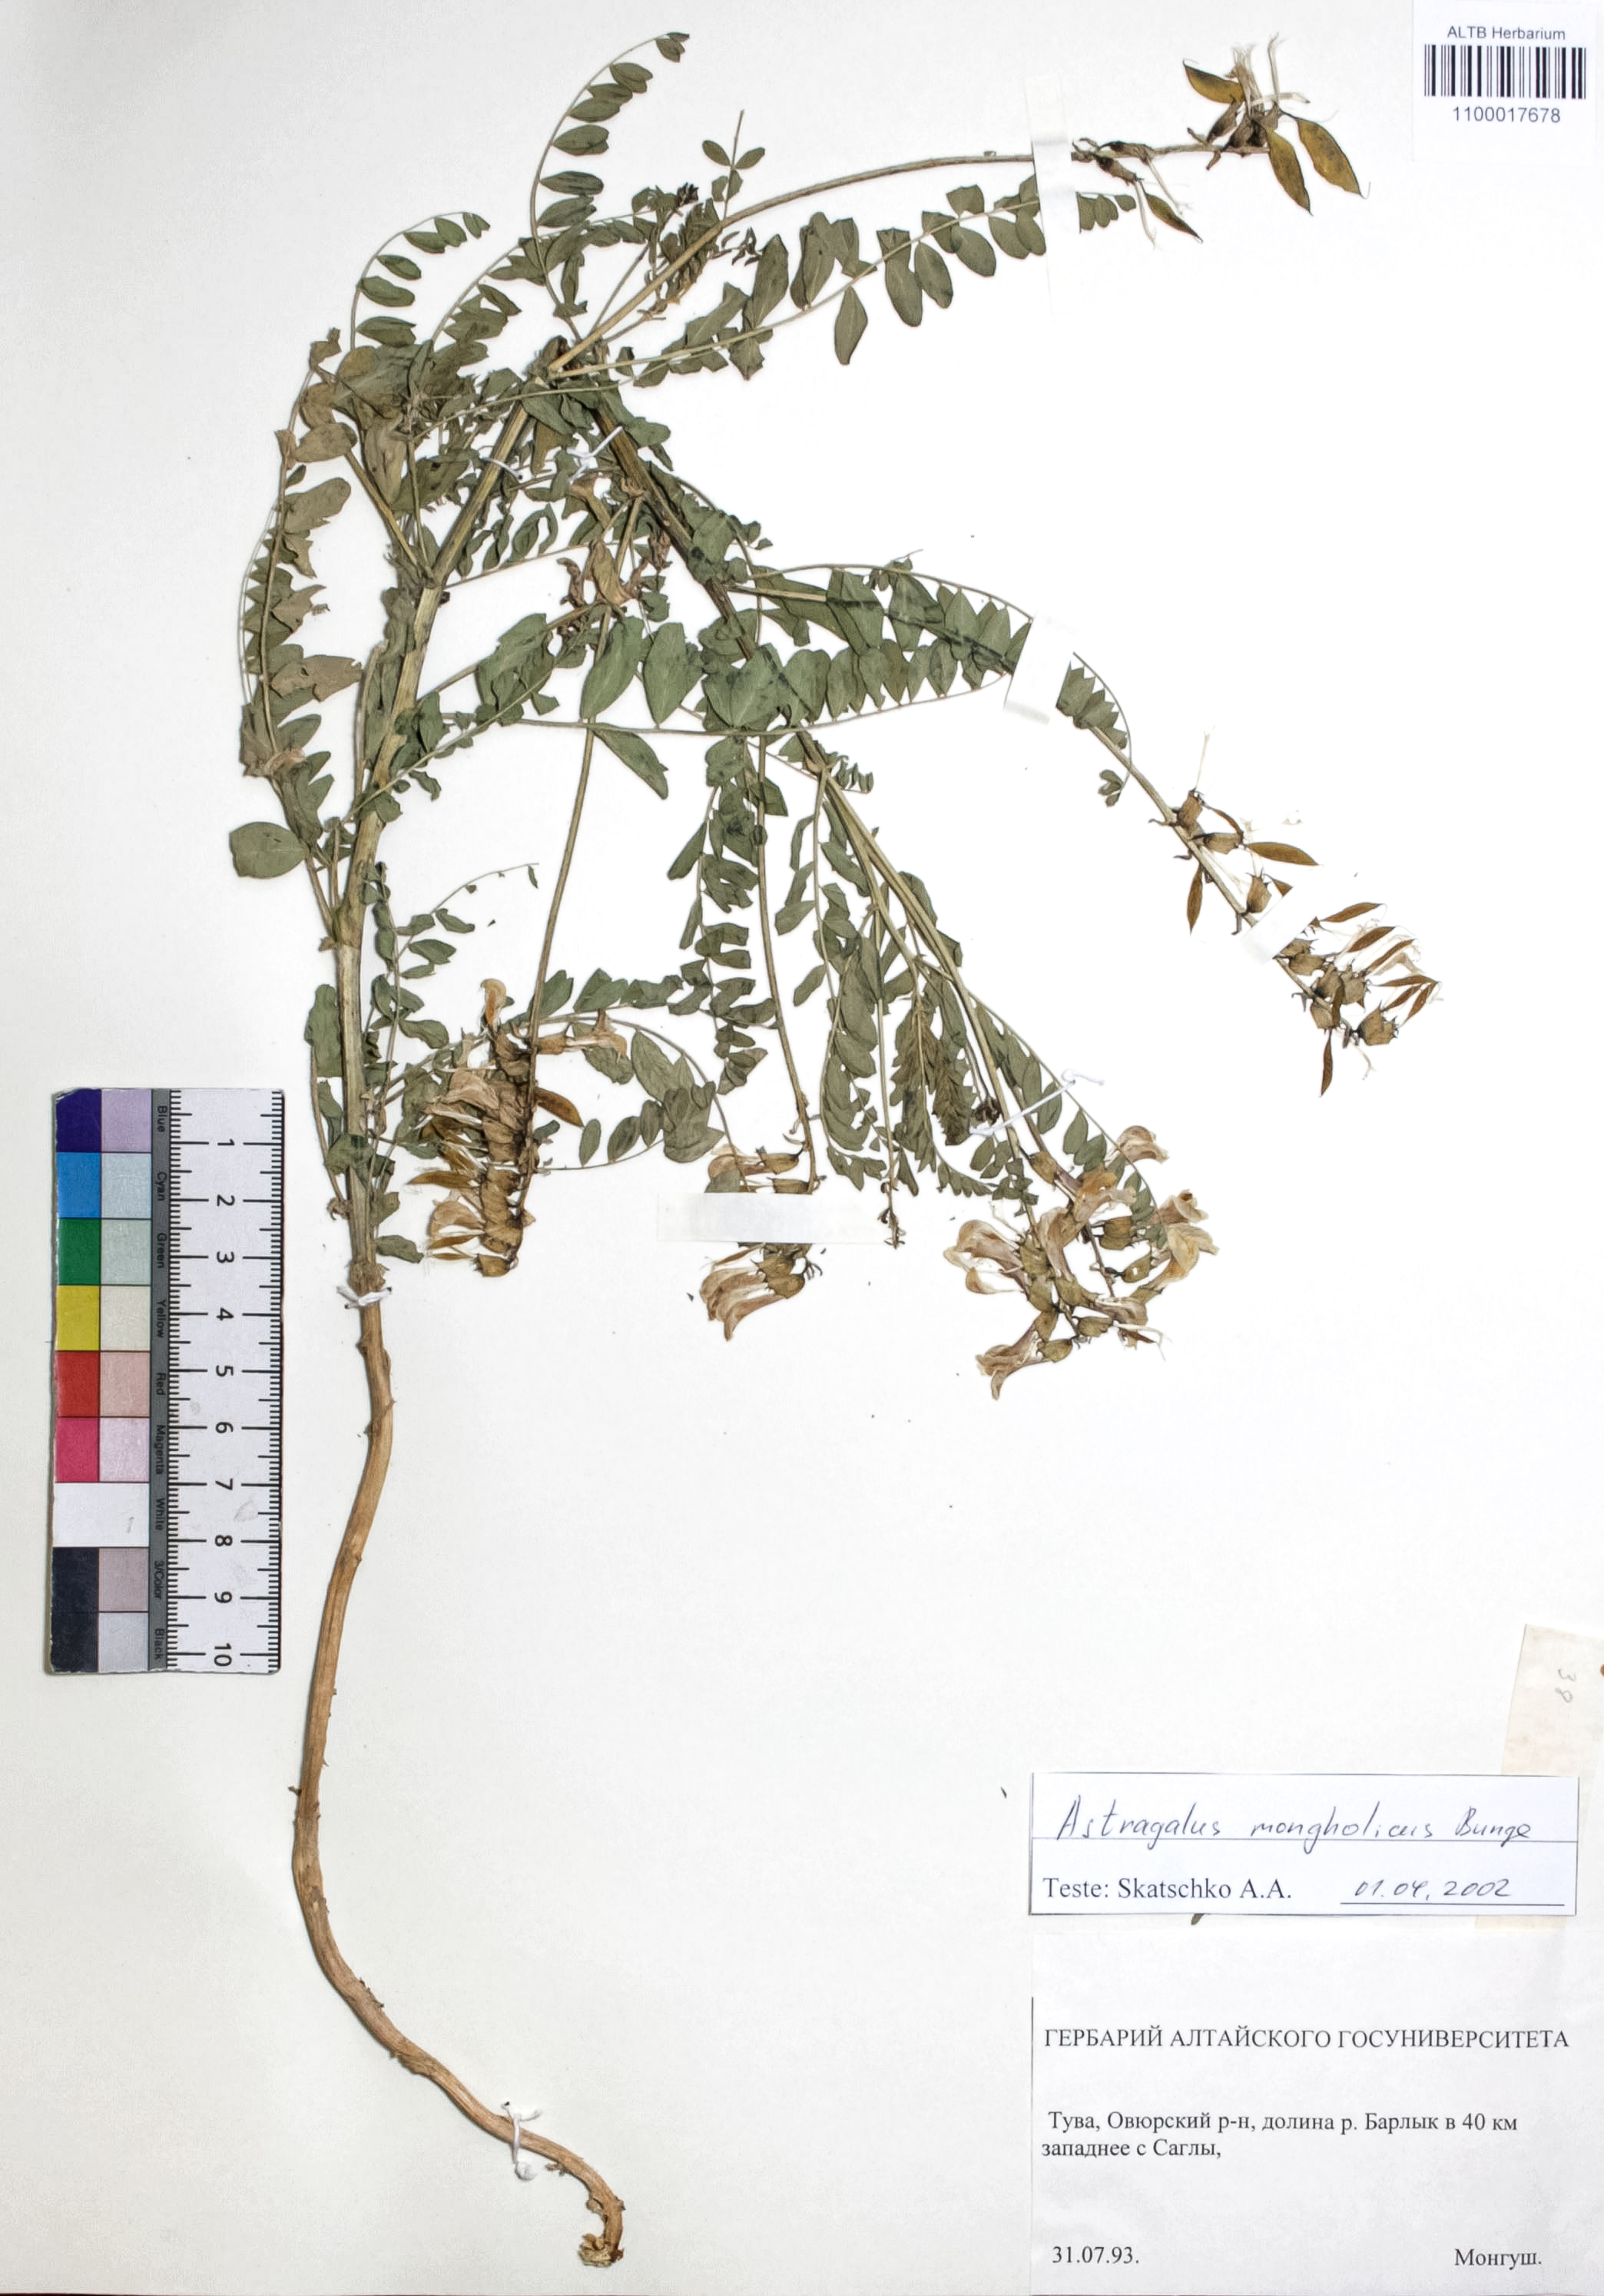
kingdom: Plantae
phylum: Tracheophyta
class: Magnoliopsida
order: Fabales
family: Fabaceae
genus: Astragalus
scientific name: Astragalus mongolicus
